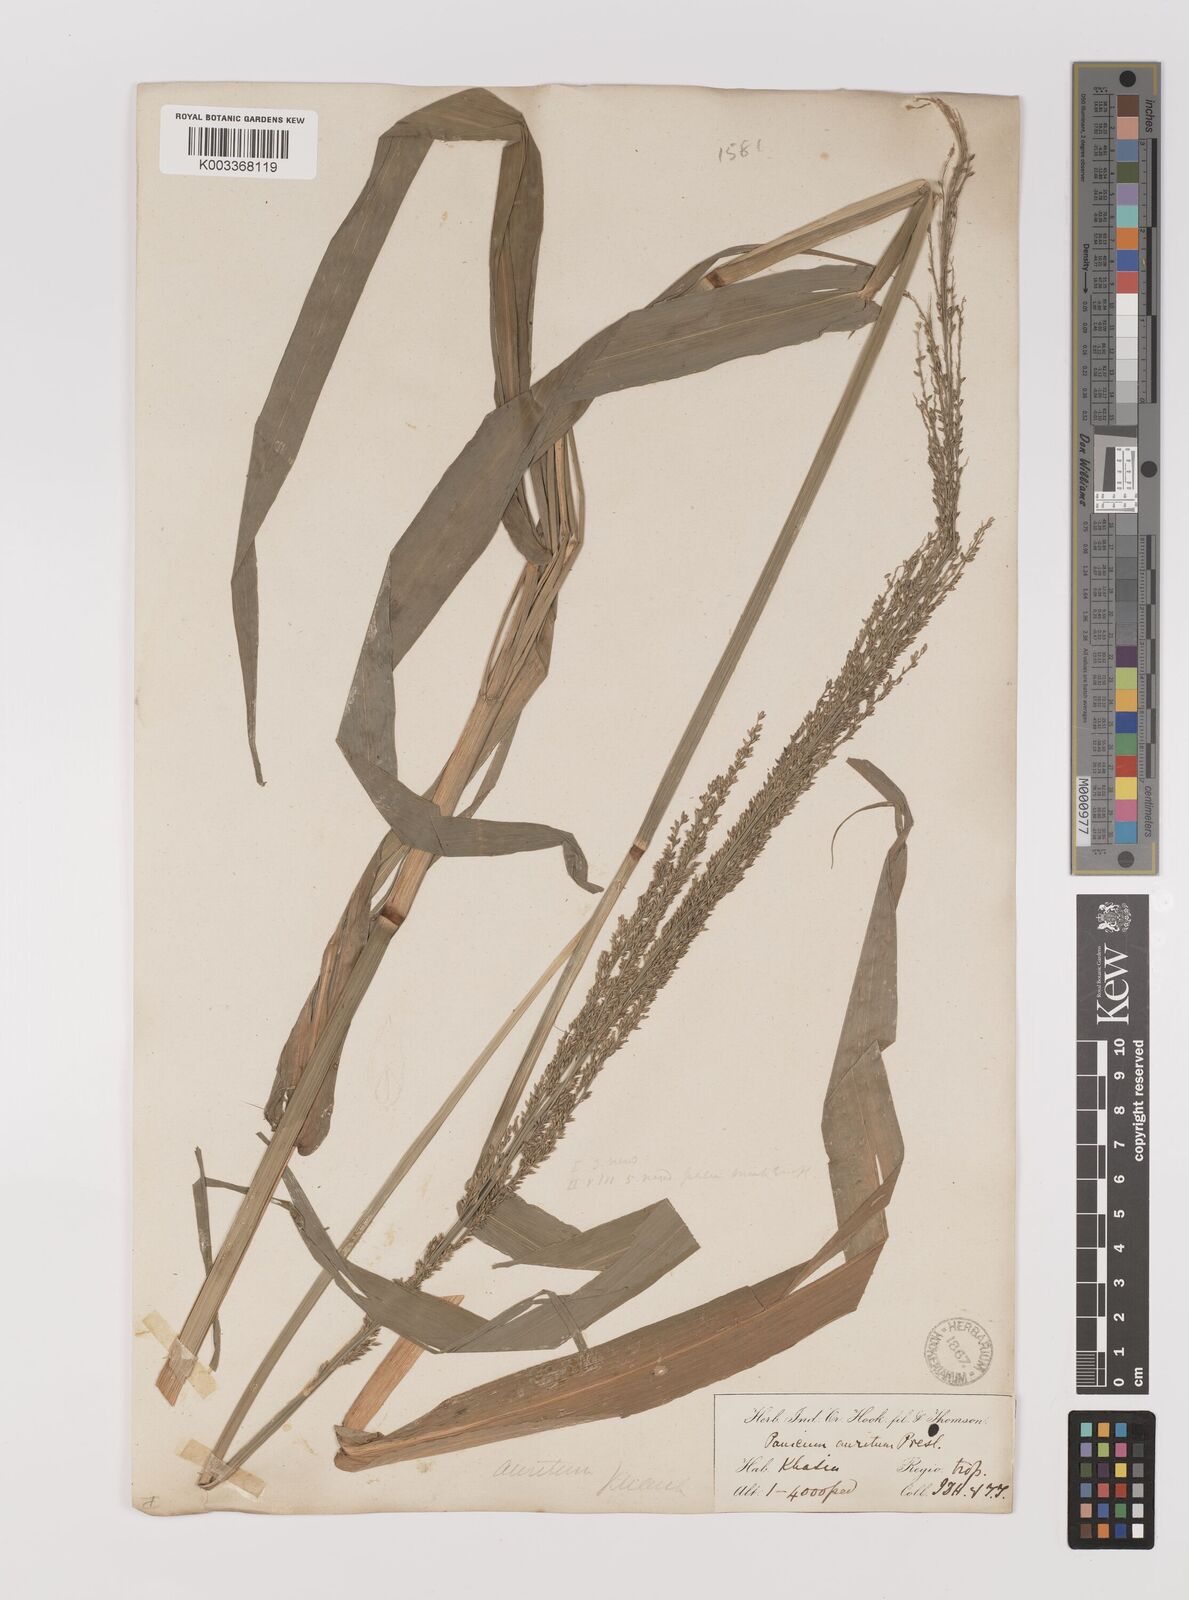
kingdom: Plantae
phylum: Tracheophyta
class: Liliopsida
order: Poales
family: Poaceae
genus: Hymenachne
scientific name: Hymenachne aurita
